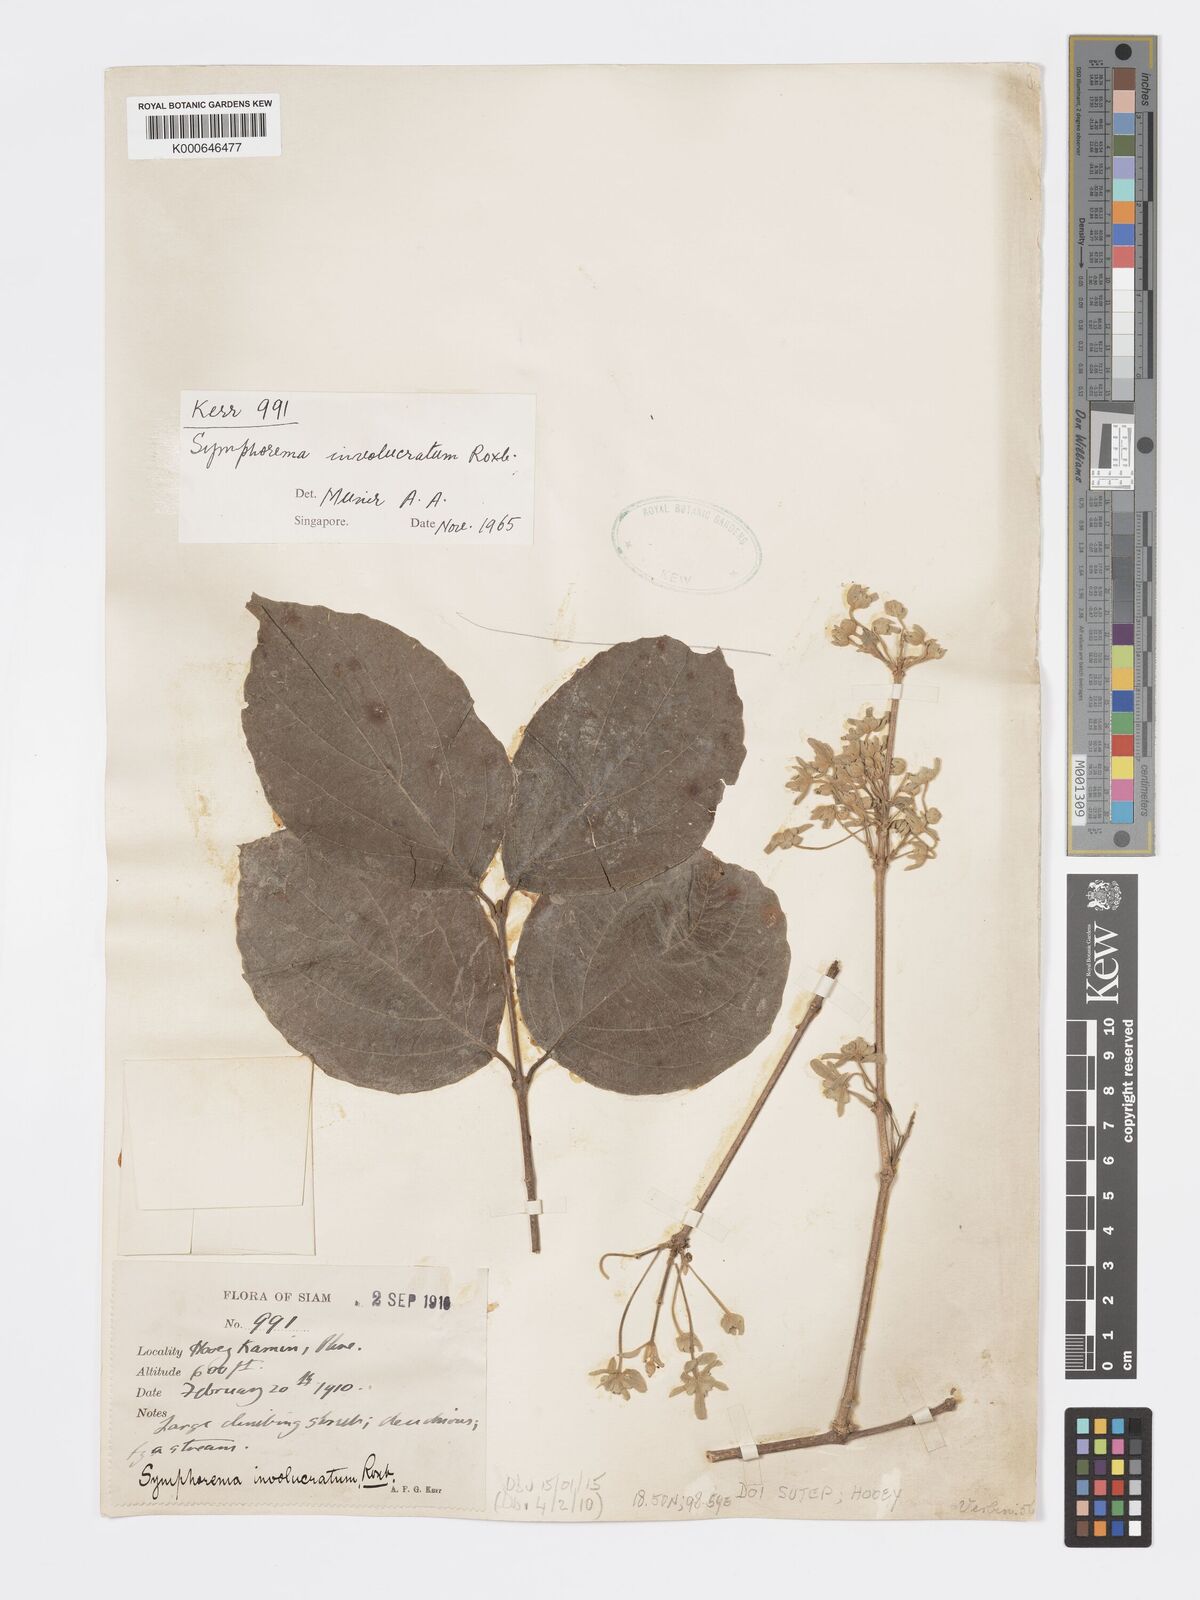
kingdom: Plantae
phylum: Tracheophyta
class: Magnoliopsida
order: Lamiales
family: Lamiaceae
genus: Symphorema
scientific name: Symphorema involucratum
